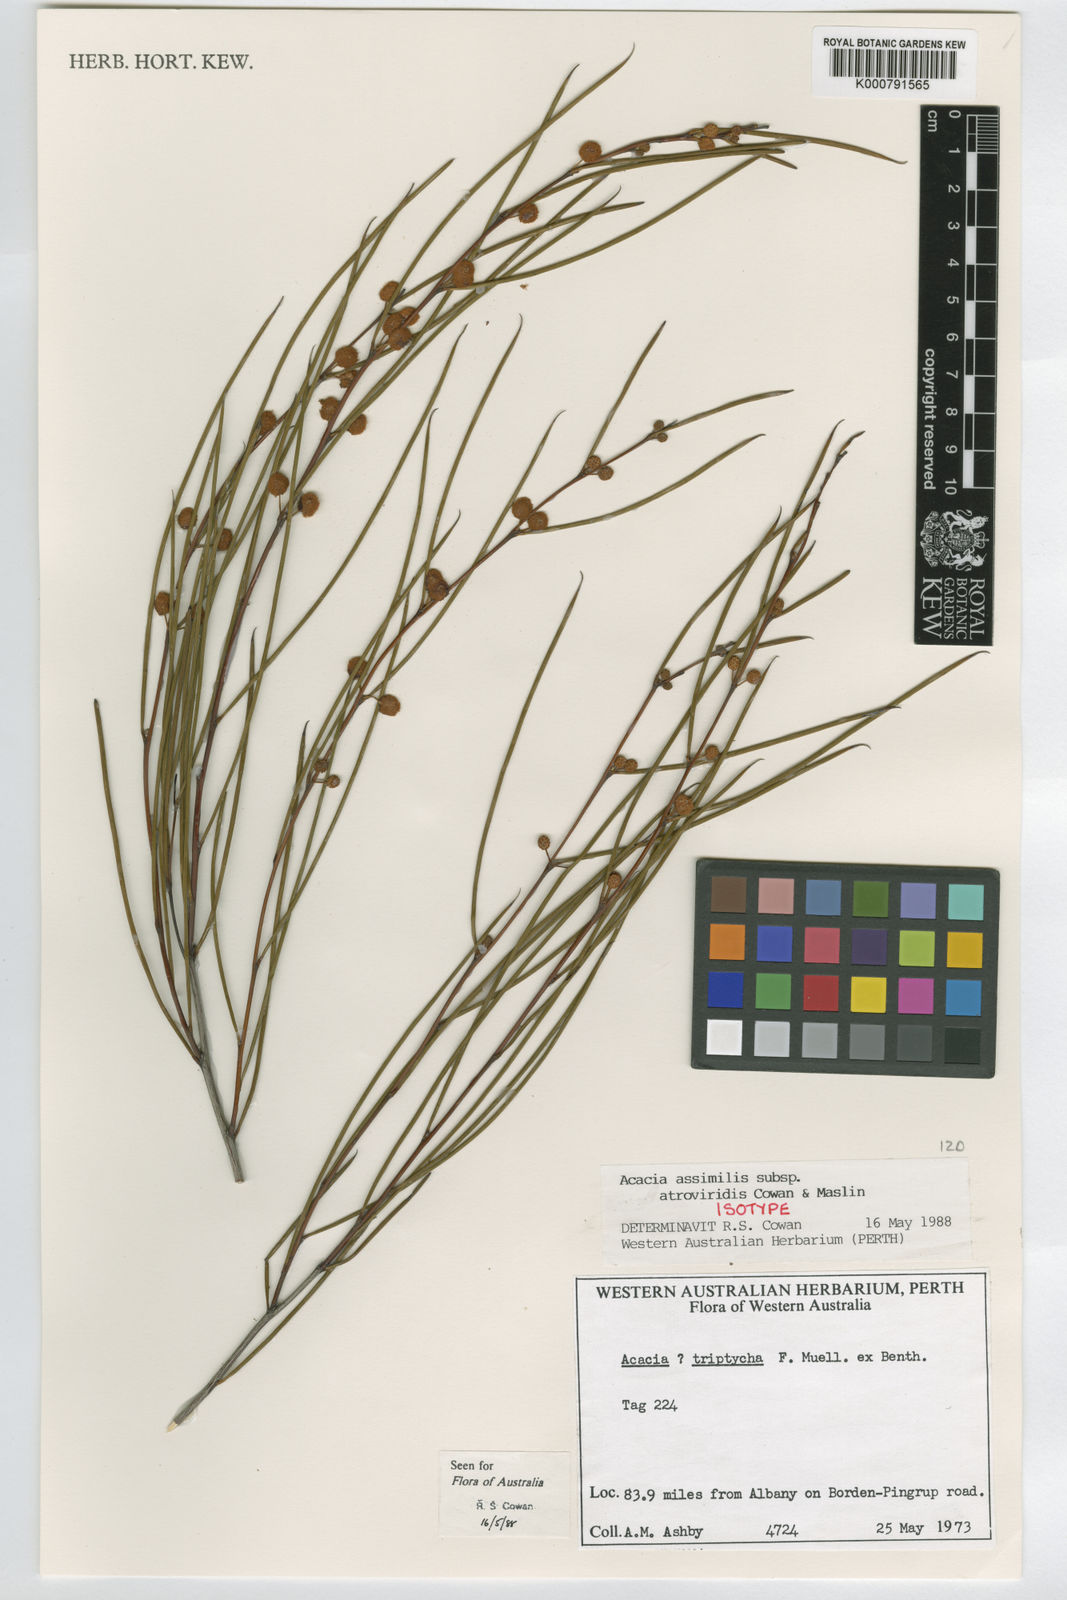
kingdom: Plantae
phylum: Tracheophyta
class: Magnoliopsida
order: Fabales
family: Fabaceae
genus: Acacia
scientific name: Acacia assimilis
